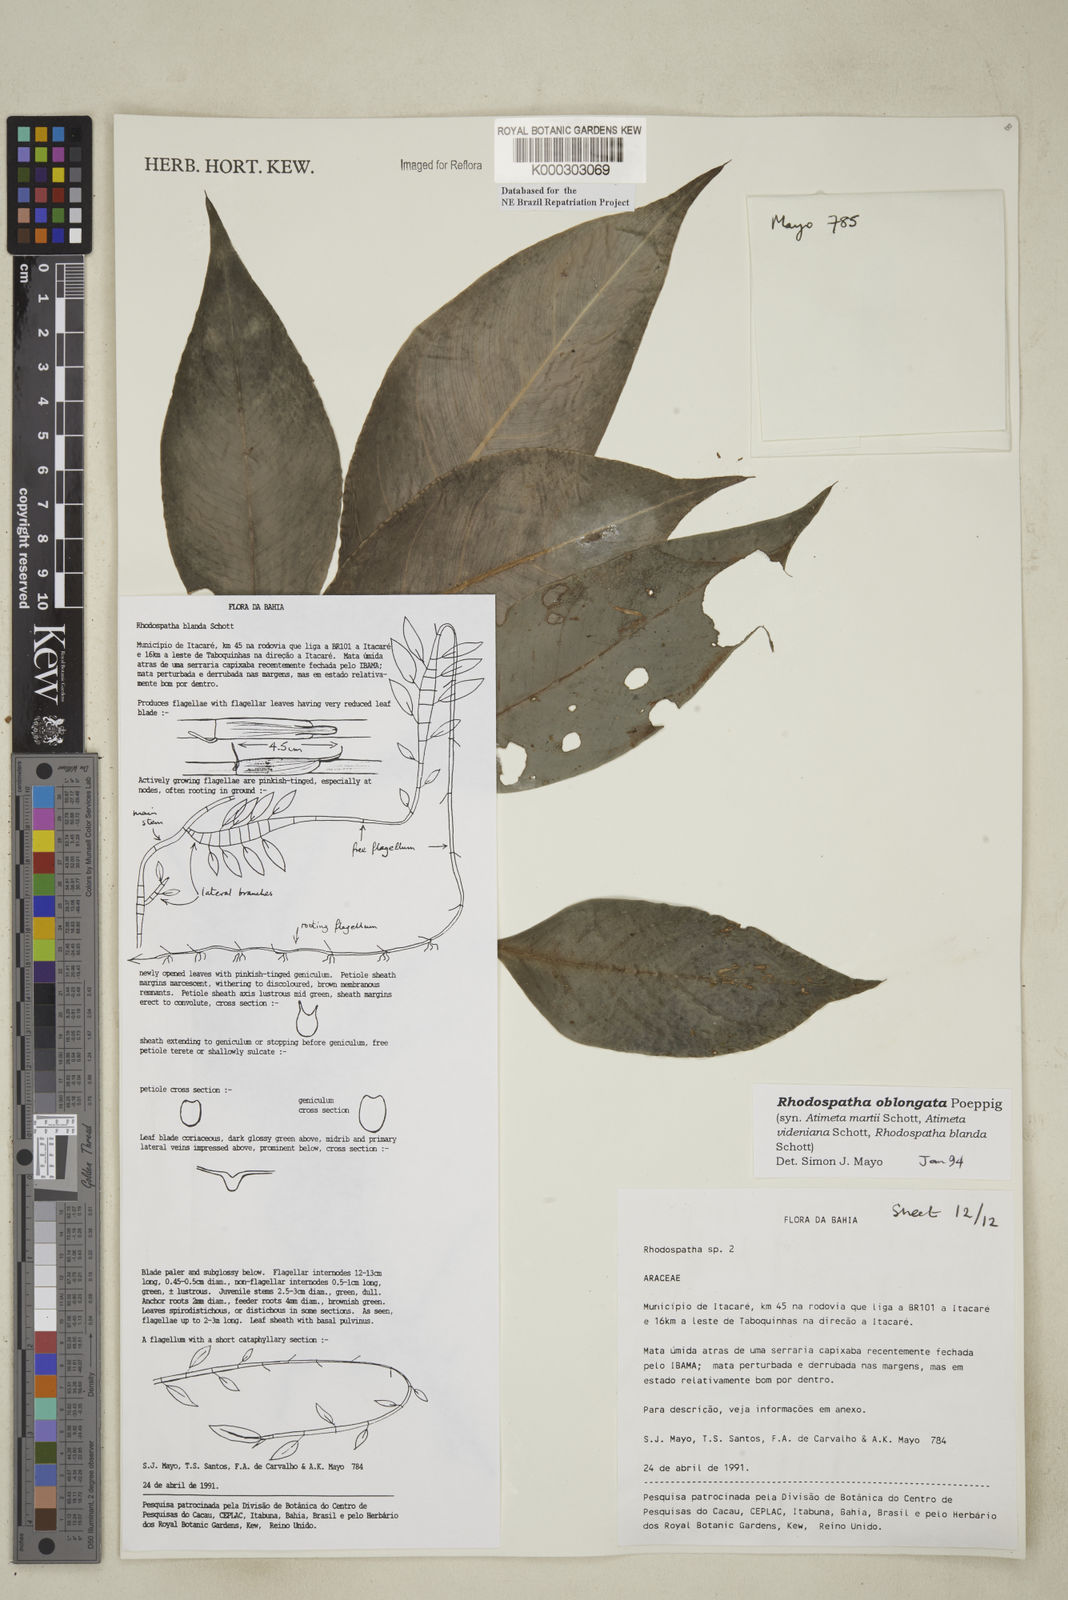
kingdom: Plantae
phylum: Tracheophyta
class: Liliopsida
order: Alismatales
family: Araceae
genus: Rhodospatha
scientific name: Rhodospatha oblongata
